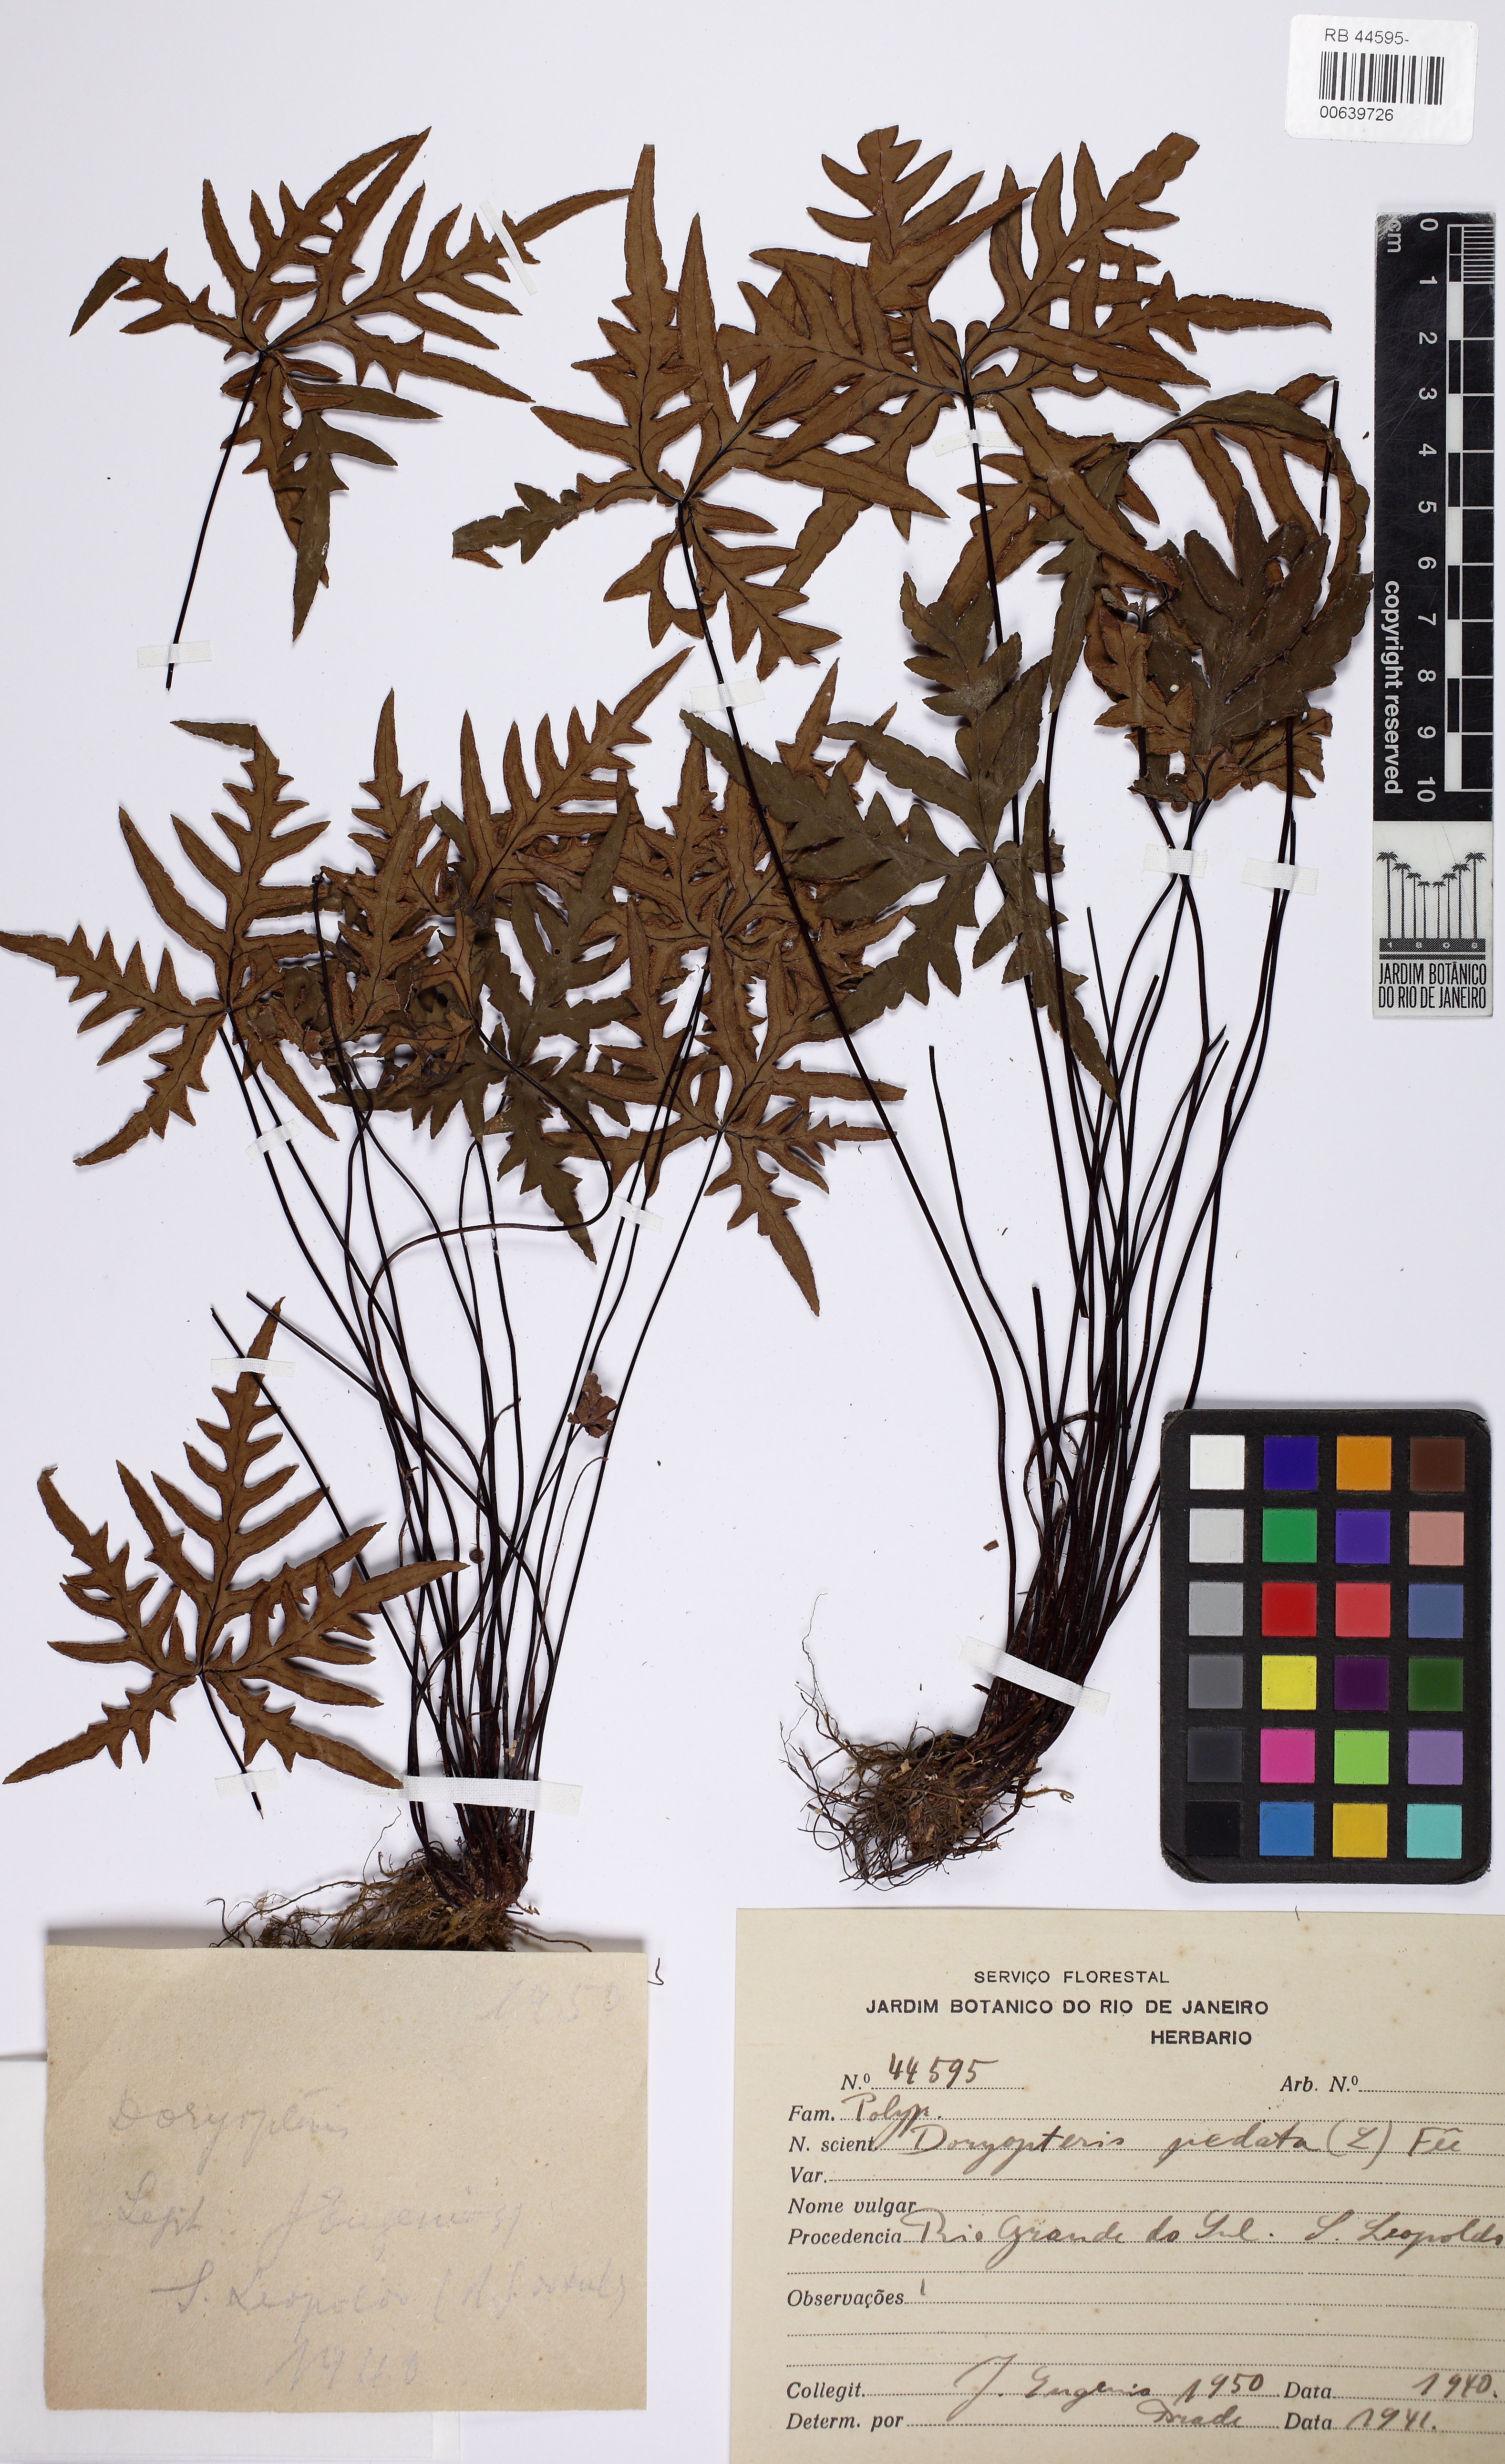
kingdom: Plantae
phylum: Tracheophyta
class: Polypodiopsida
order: Polypodiales
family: Pteridaceae
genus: Doryopteris
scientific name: Doryopteris pentagona
